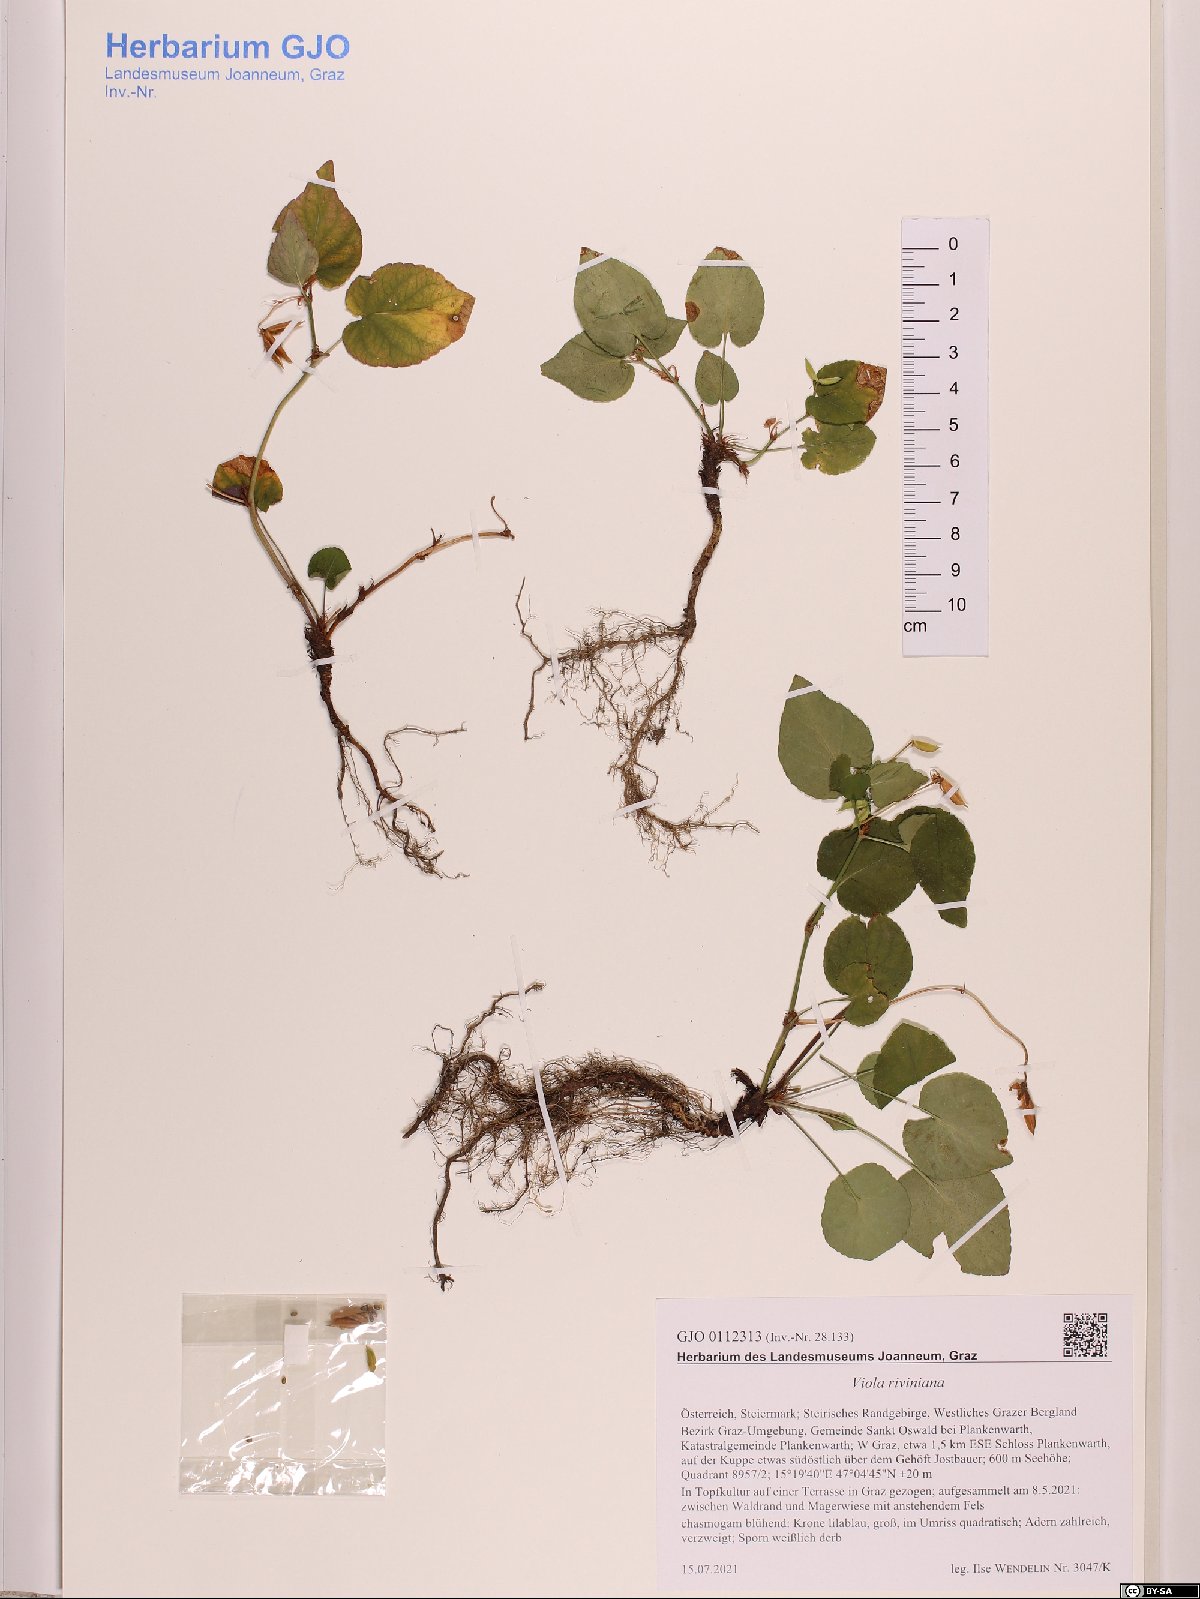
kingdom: Plantae
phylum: Tracheophyta
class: Magnoliopsida
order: Malpighiales
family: Violaceae
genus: Viola
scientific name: Viola riviniana
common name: Common dog-violet
